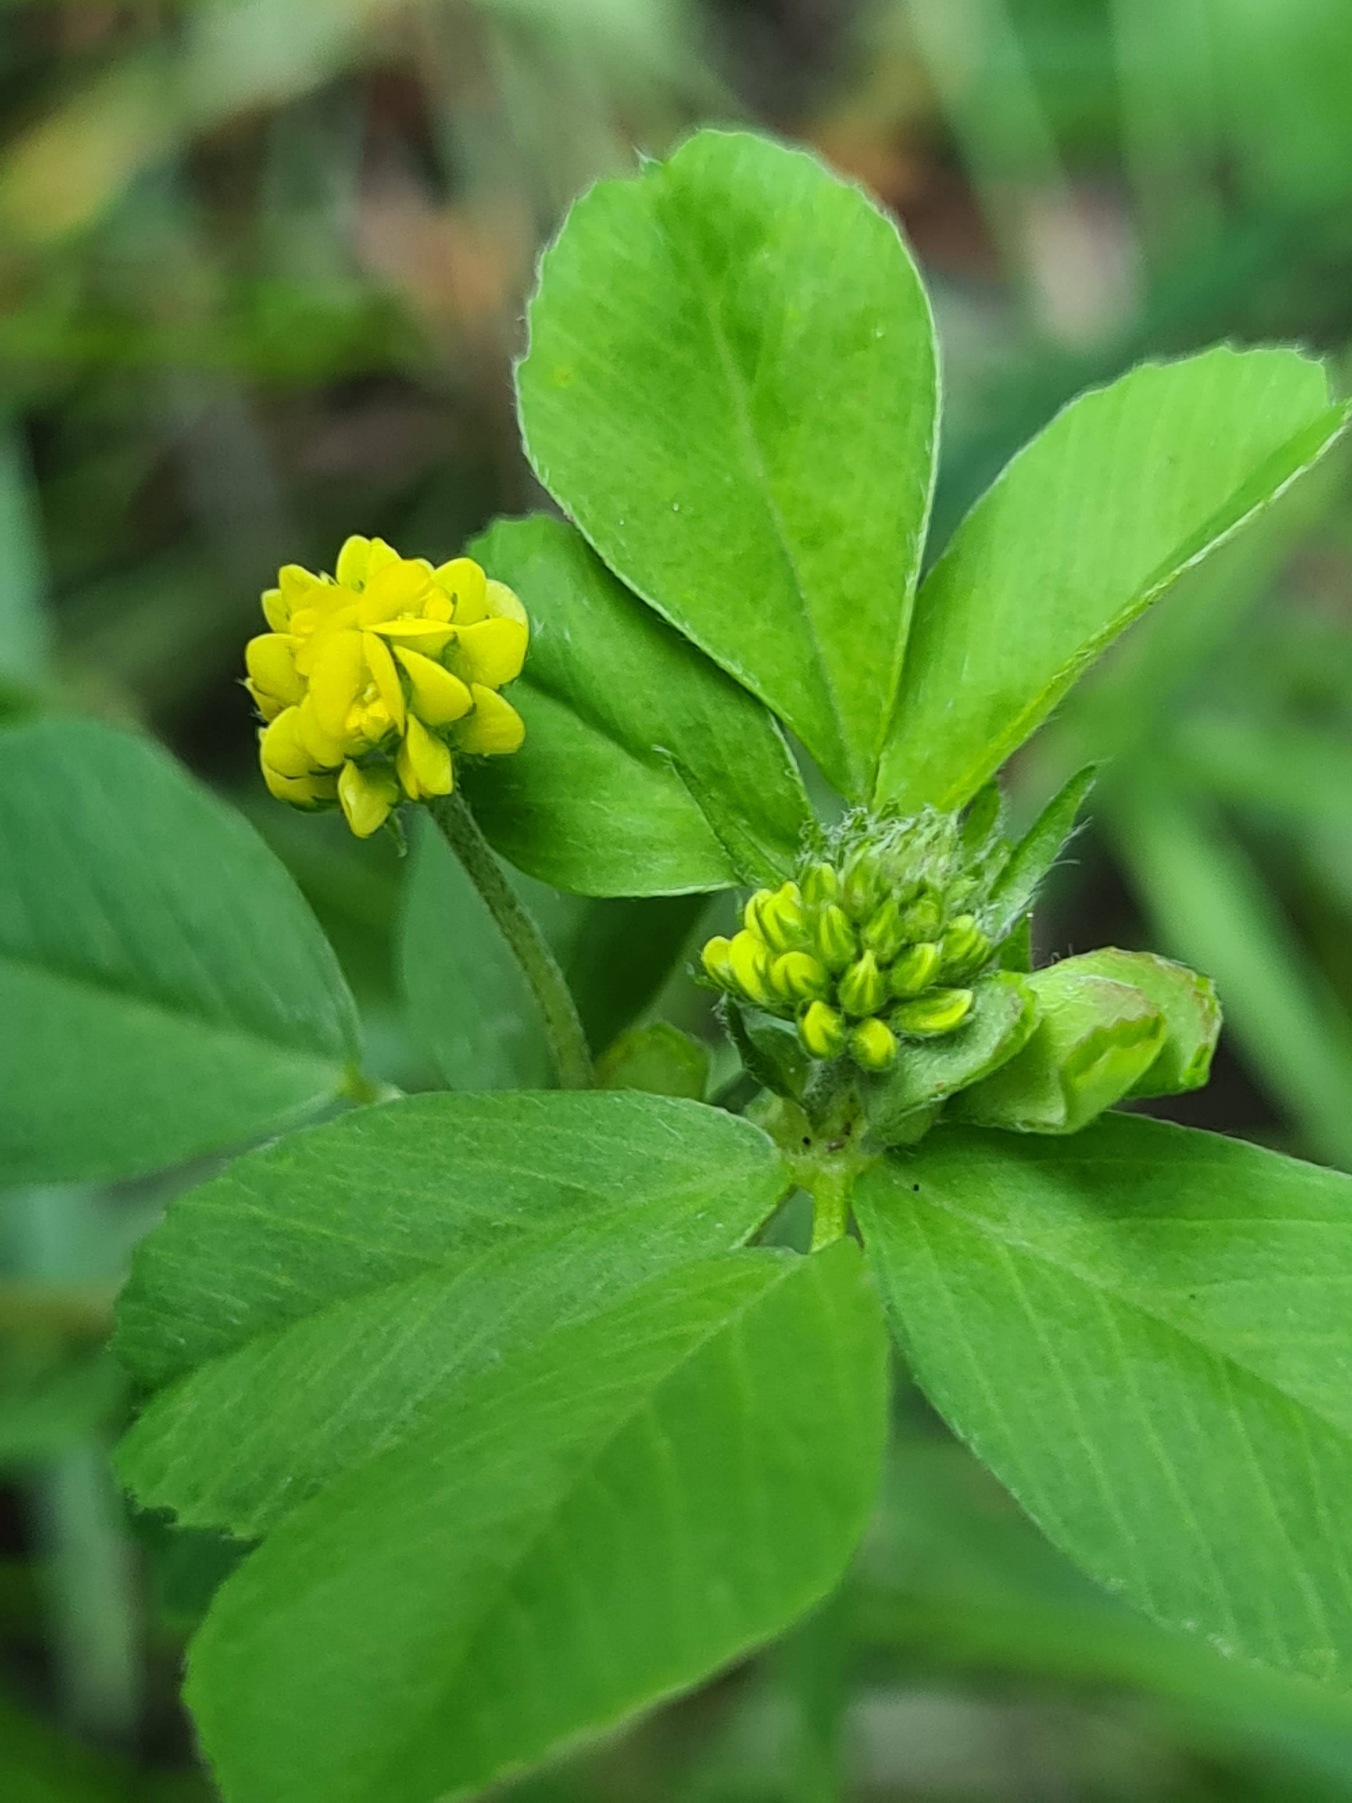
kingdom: Plantae
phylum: Tracheophyta
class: Magnoliopsida
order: Fabales
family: Fabaceae
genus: Medicago
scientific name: Medicago lupulina
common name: Humle-sneglebælg
